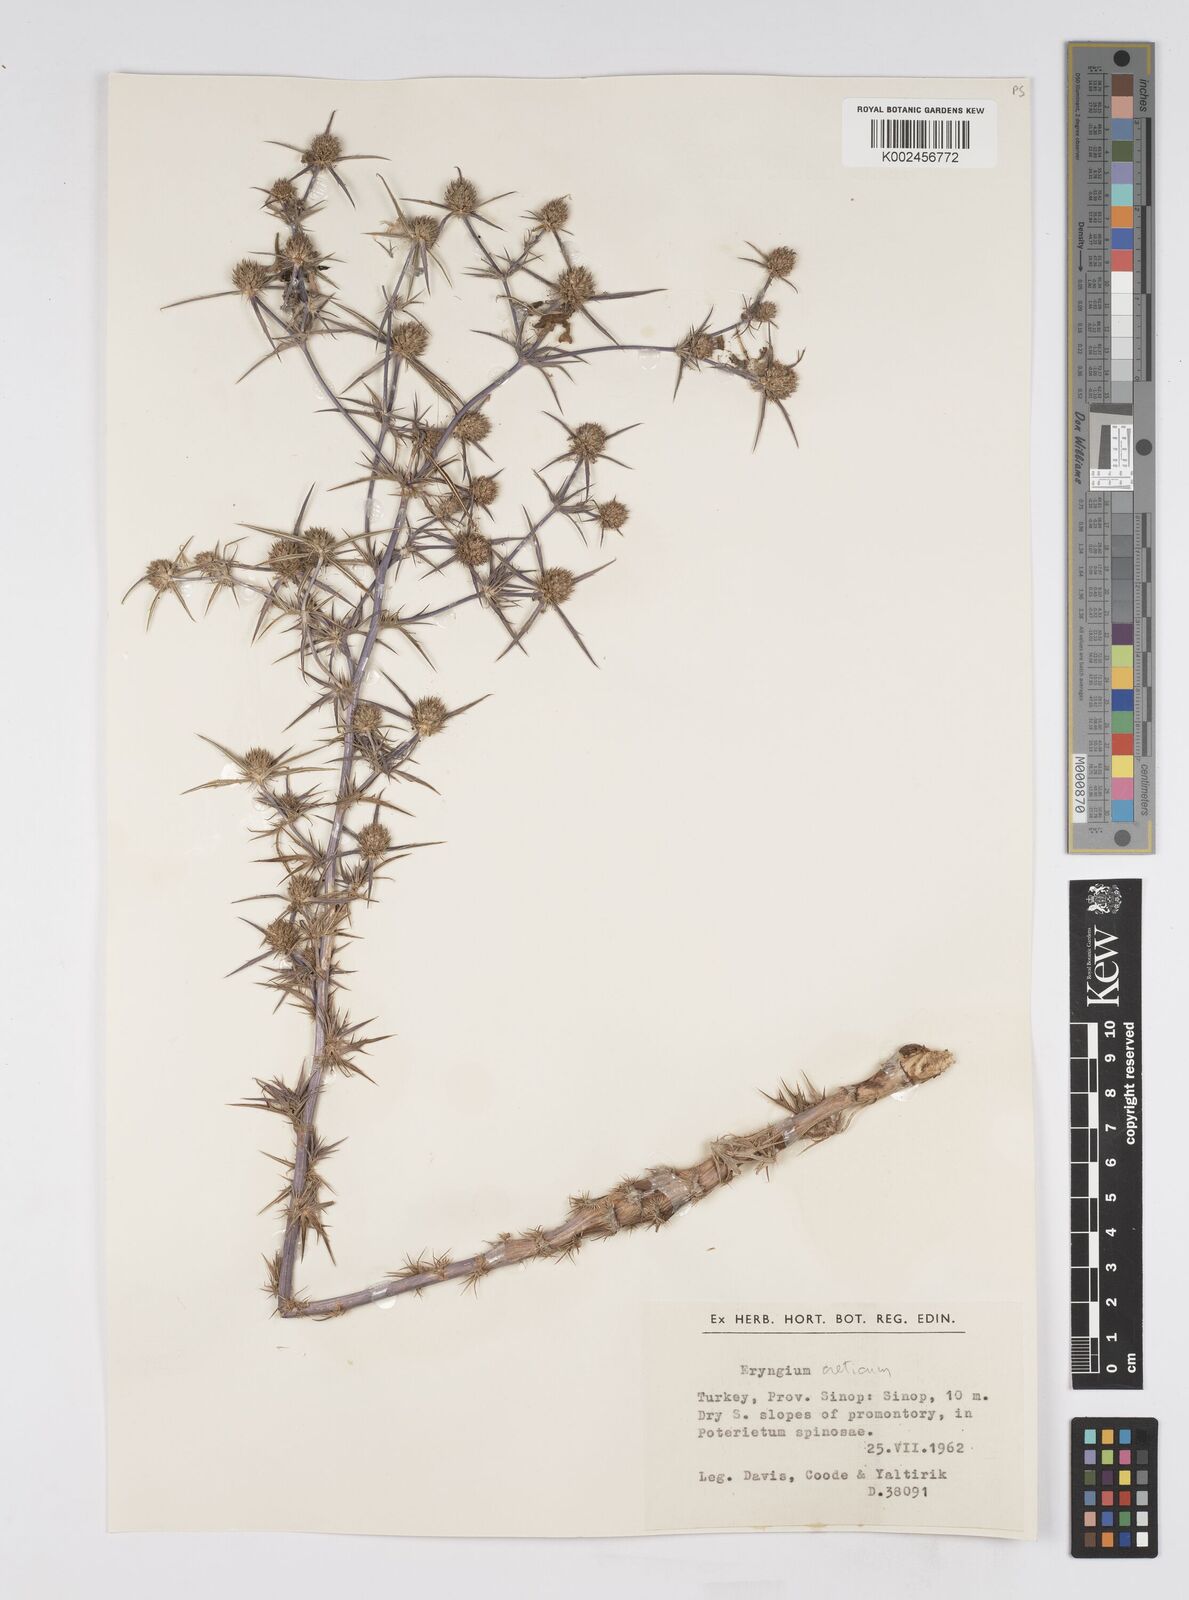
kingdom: Plantae
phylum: Tracheophyta
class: Magnoliopsida
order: Apiales
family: Apiaceae
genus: Eryngium
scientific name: Eryngium creticum
